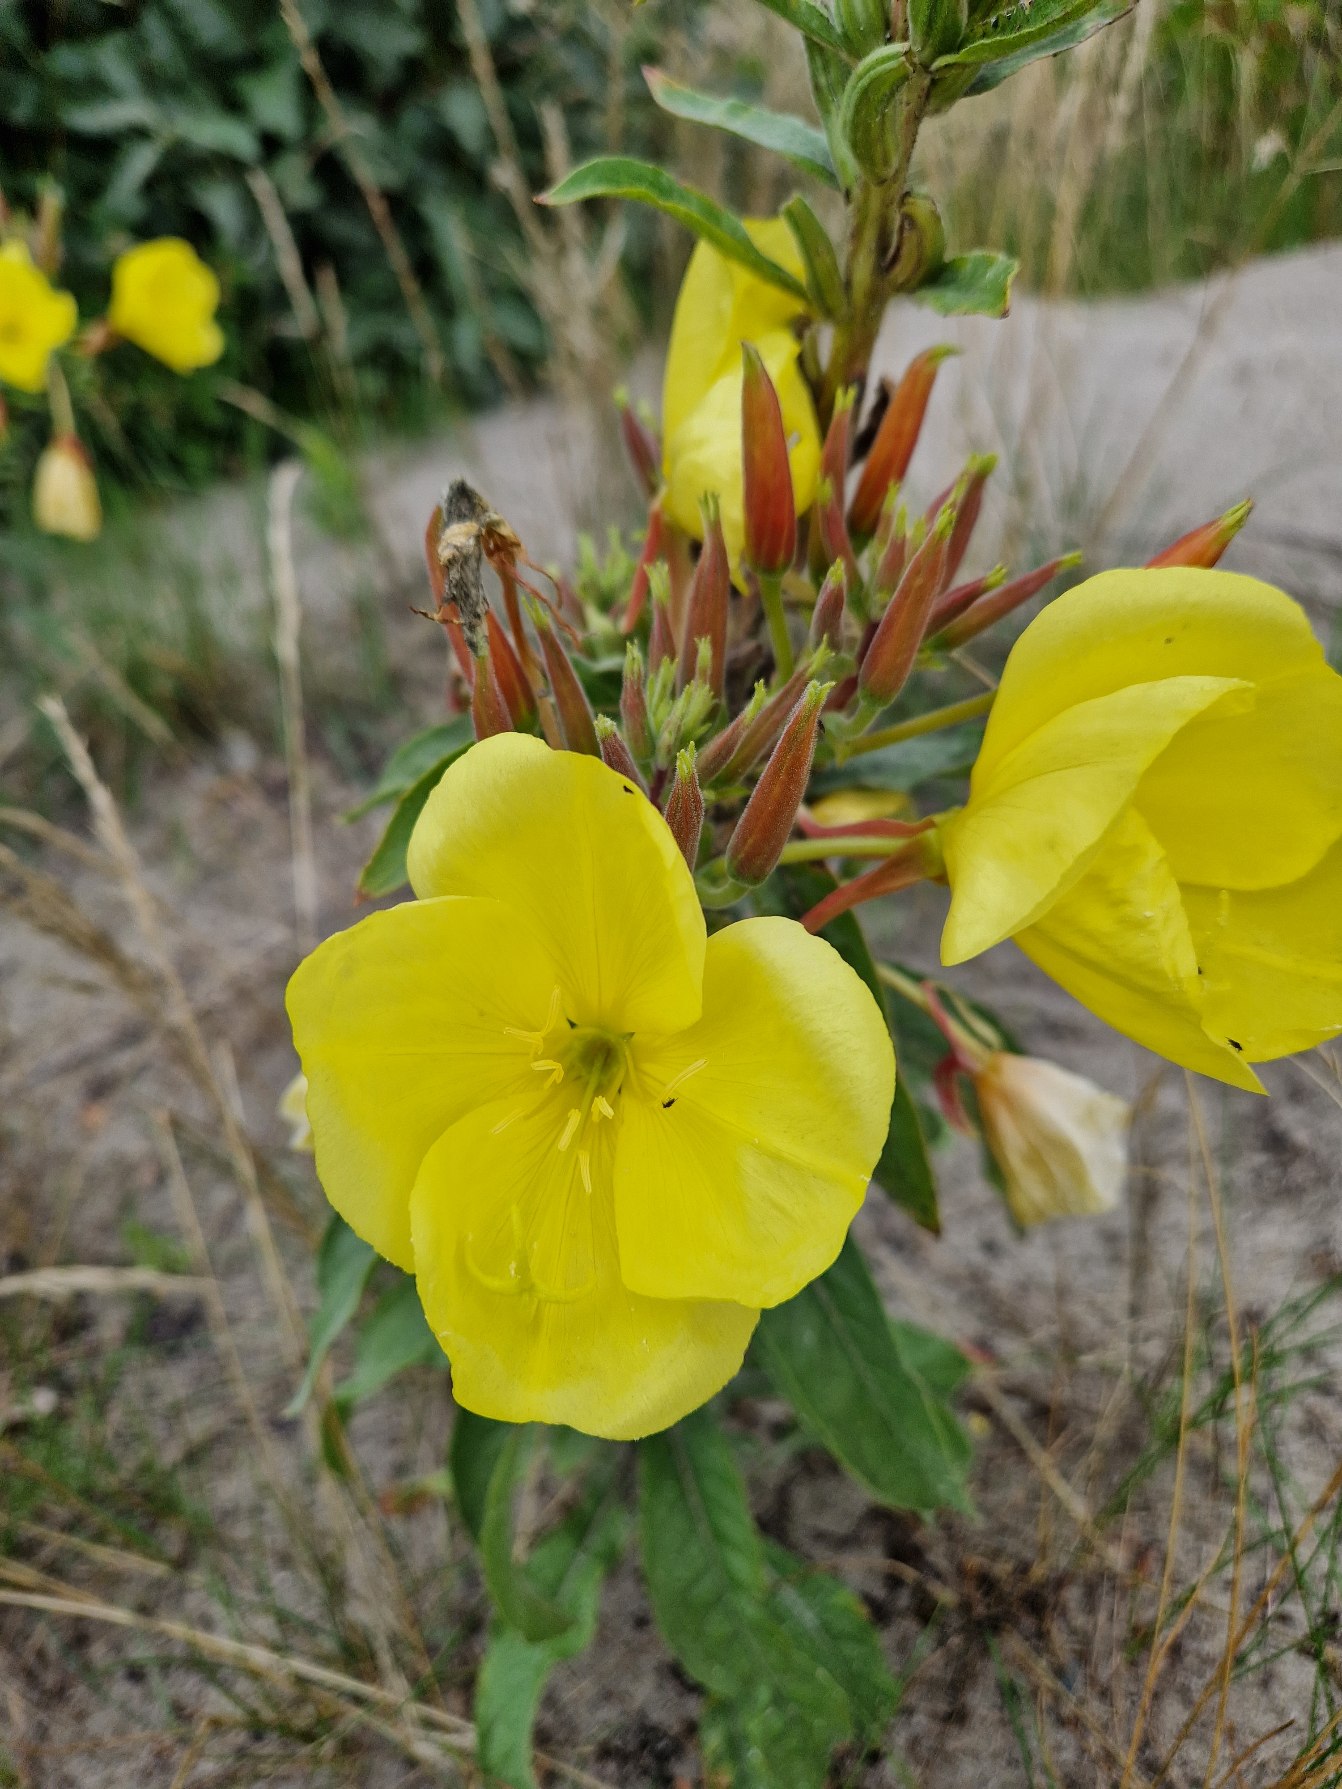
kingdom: Plantae
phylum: Tracheophyta
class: Magnoliopsida
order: Myrtales
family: Onagraceae
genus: Oenothera
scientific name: Oenothera glazioviana
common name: Kæmpe-natlys
